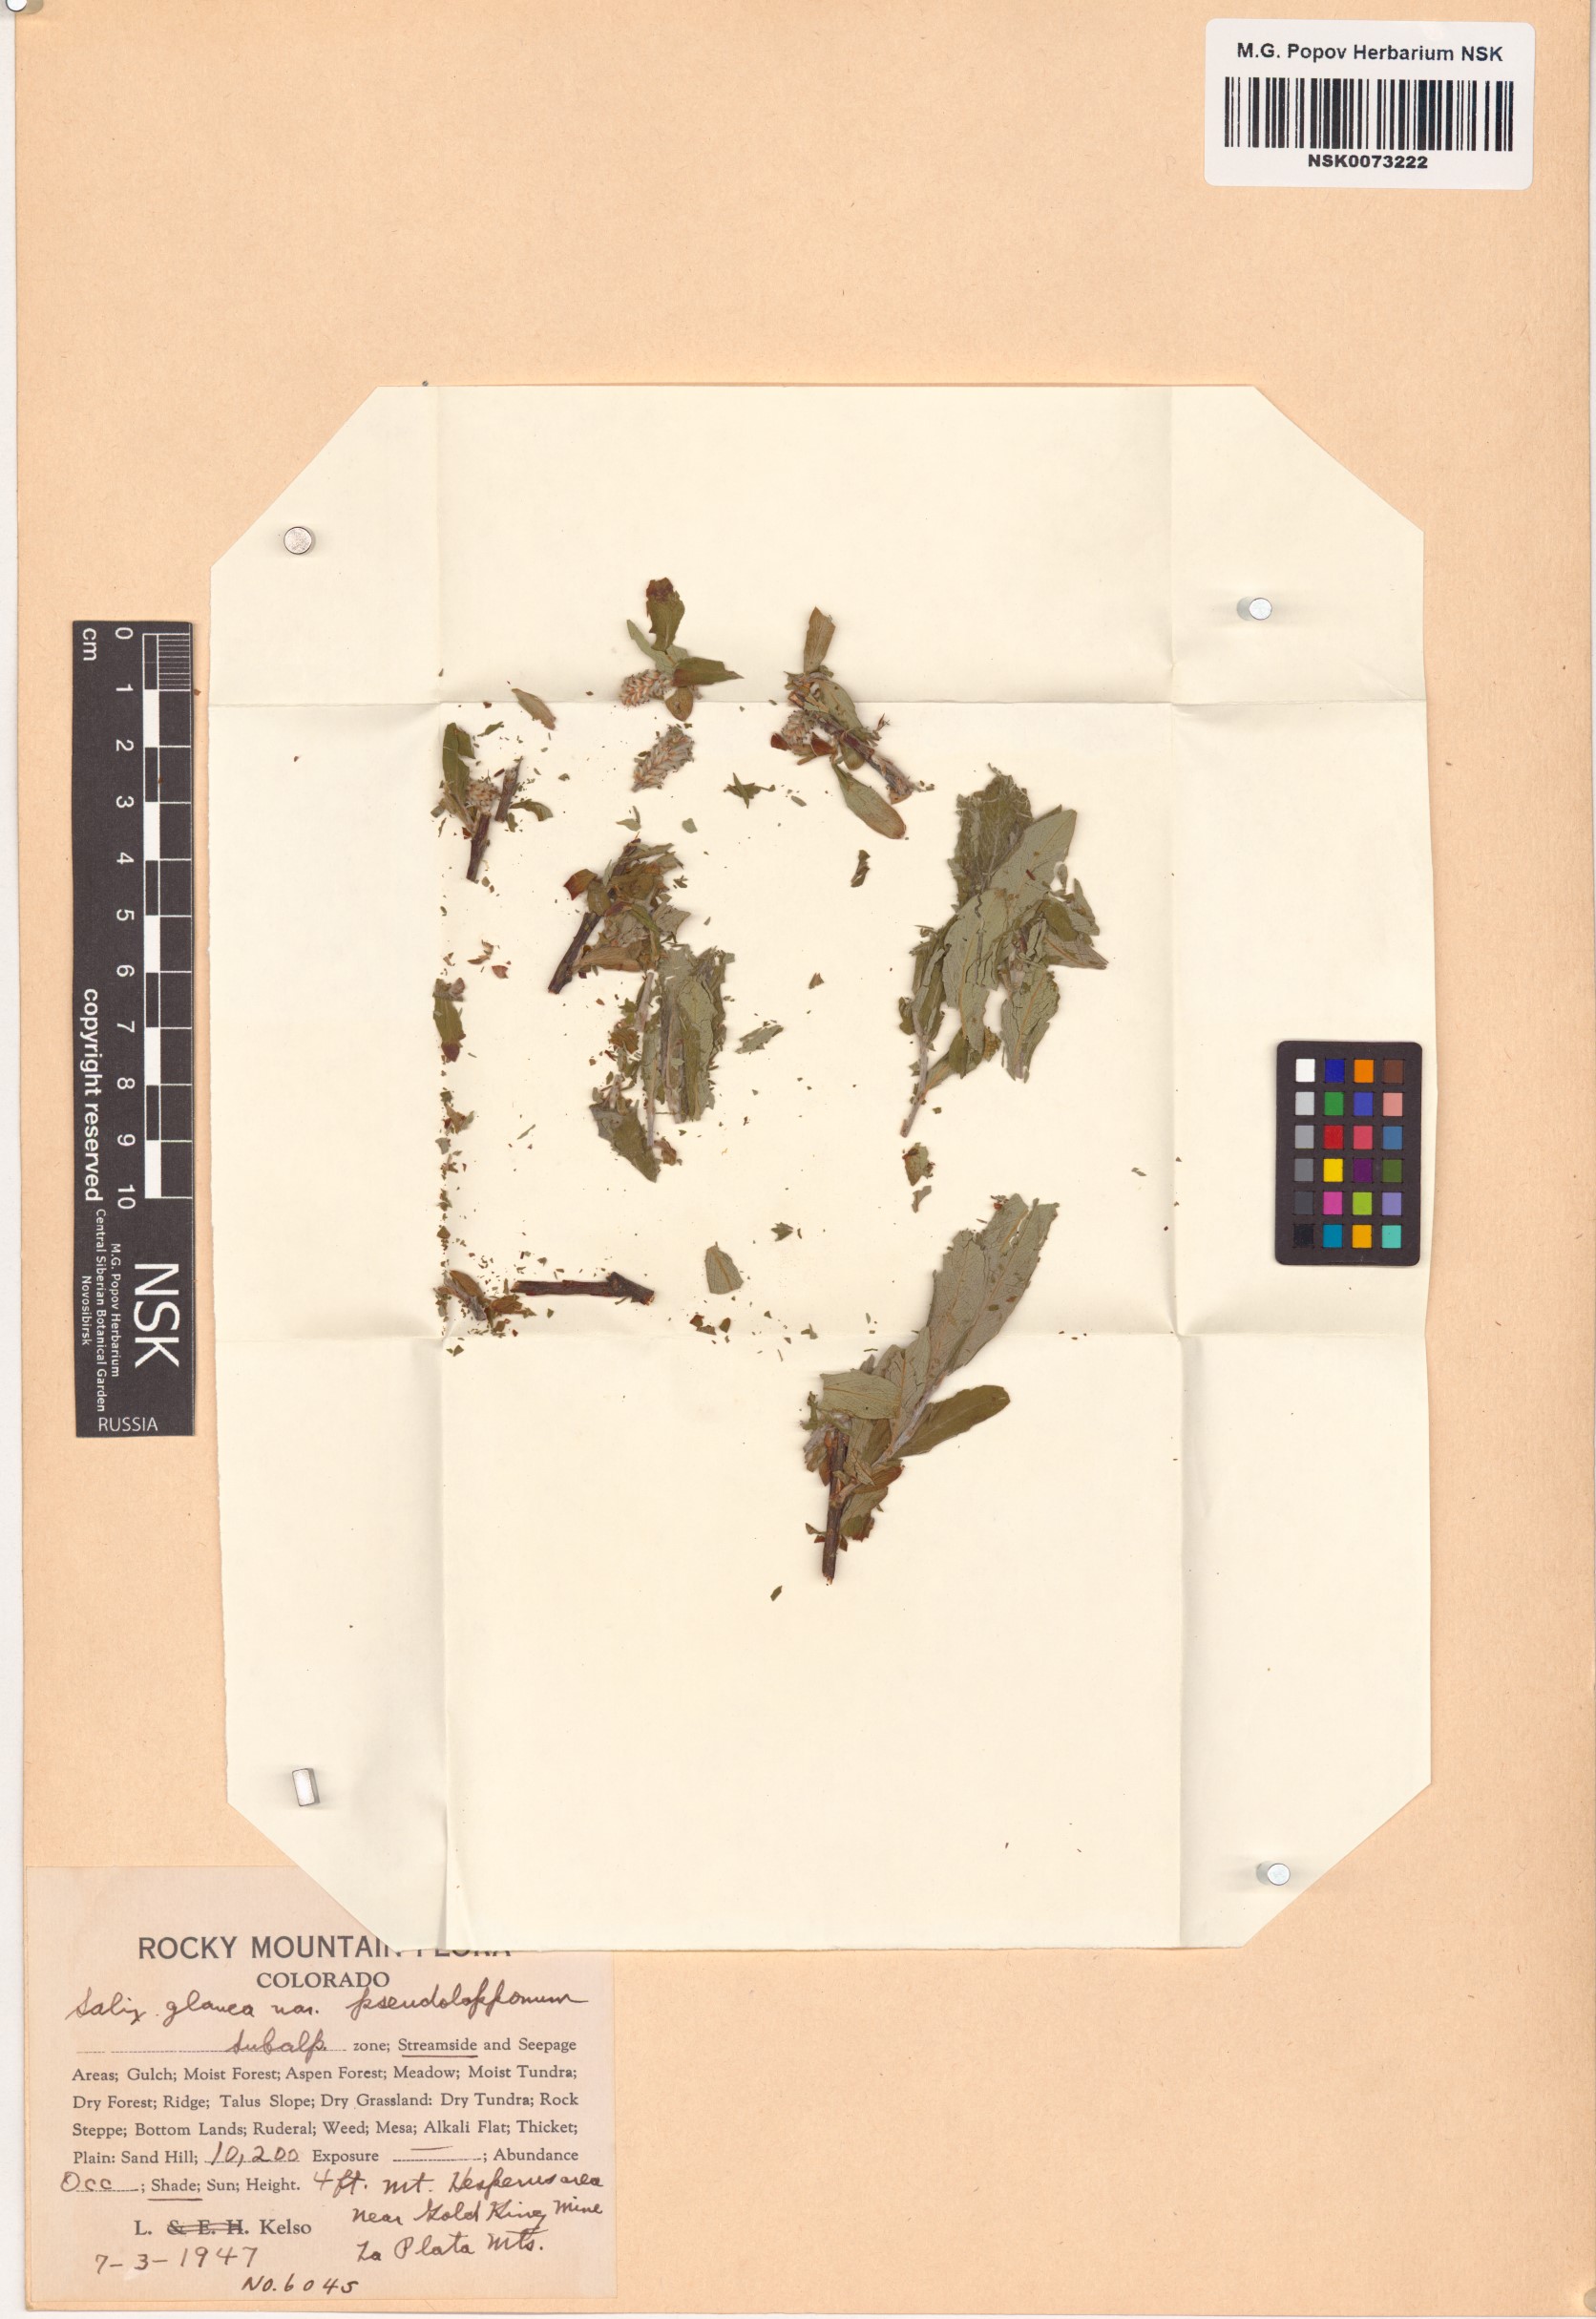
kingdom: Plantae
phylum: Tracheophyta
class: Magnoliopsida
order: Malpighiales
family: Salicaceae
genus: Salix
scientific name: Salix glauca
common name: Glaucous willow
